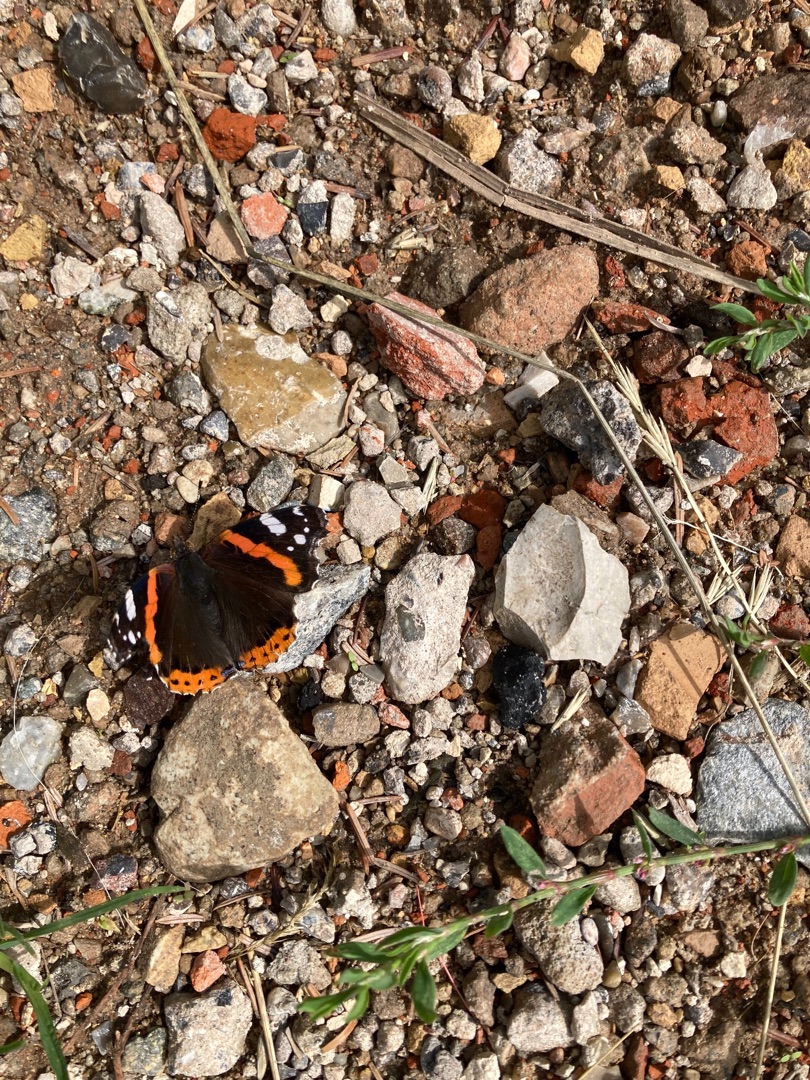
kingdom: Animalia
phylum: Arthropoda
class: Insecta
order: Lepidoptera
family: Nymphalidae
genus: Vanessa
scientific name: Vanessa atalanta
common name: Admiral
